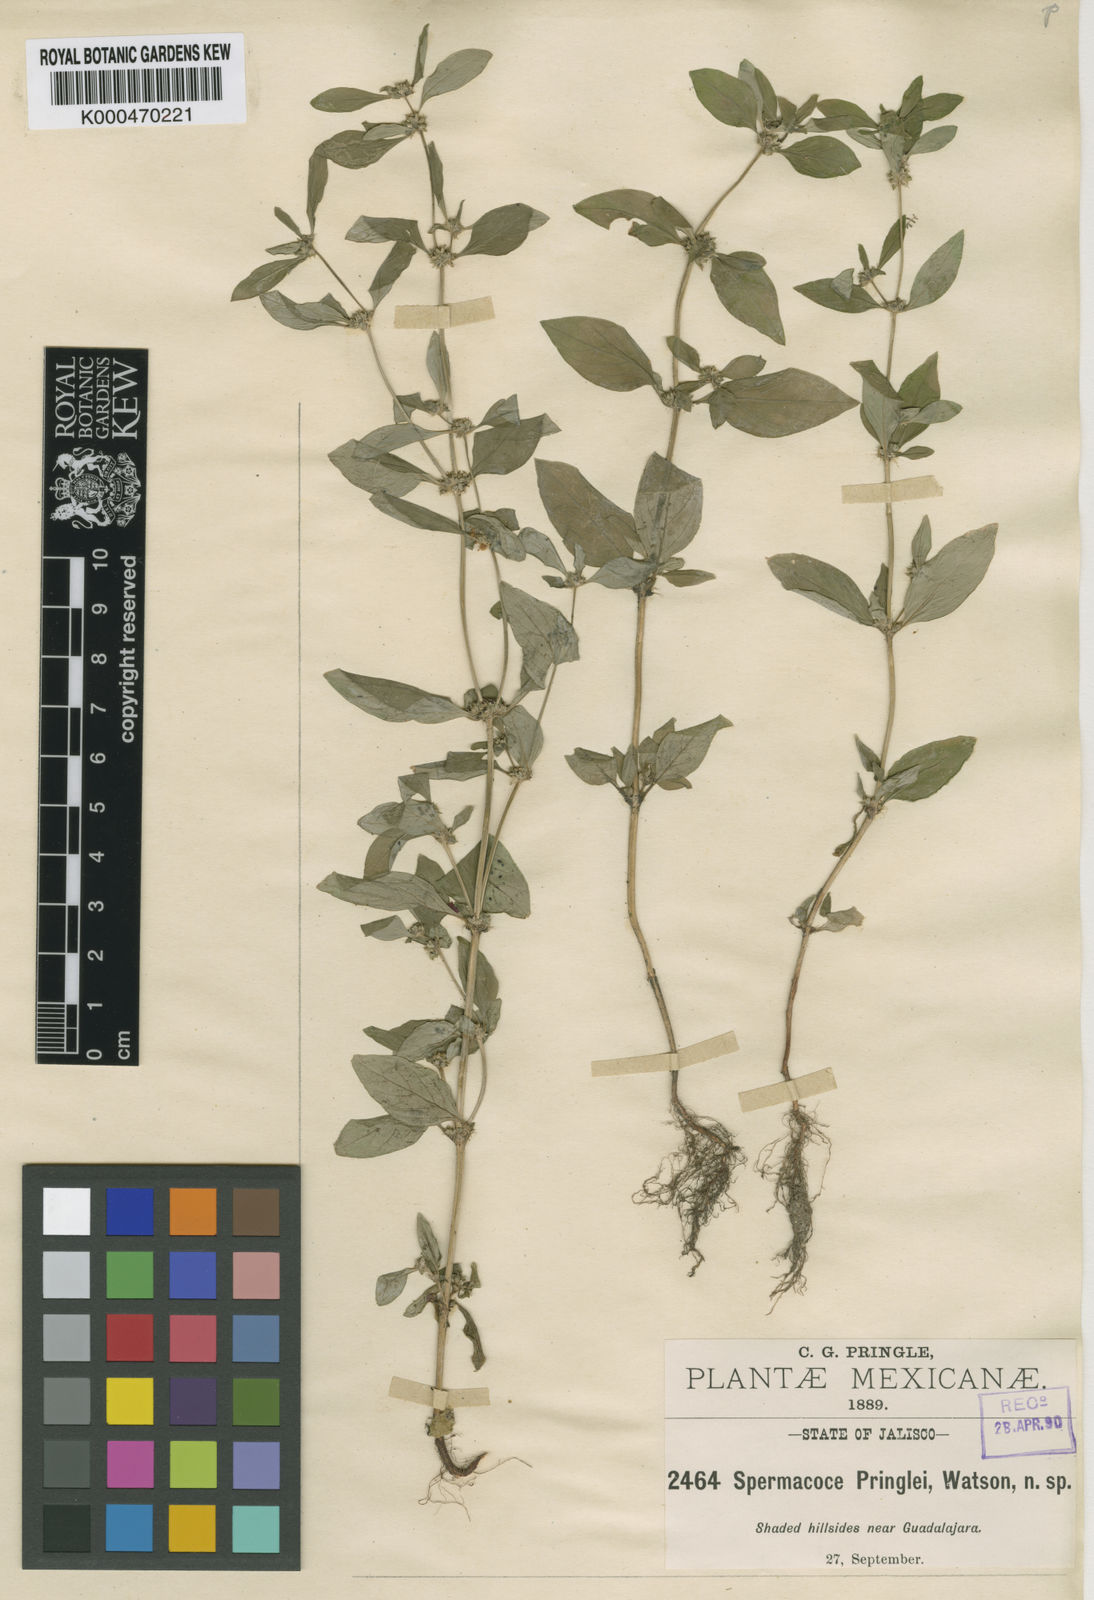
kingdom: Plantae
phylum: Tracheophyta
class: Magnoliopsida
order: Gentianales
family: Rubiaceae
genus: Spermacoce
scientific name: Spermacoce ovalifolia
